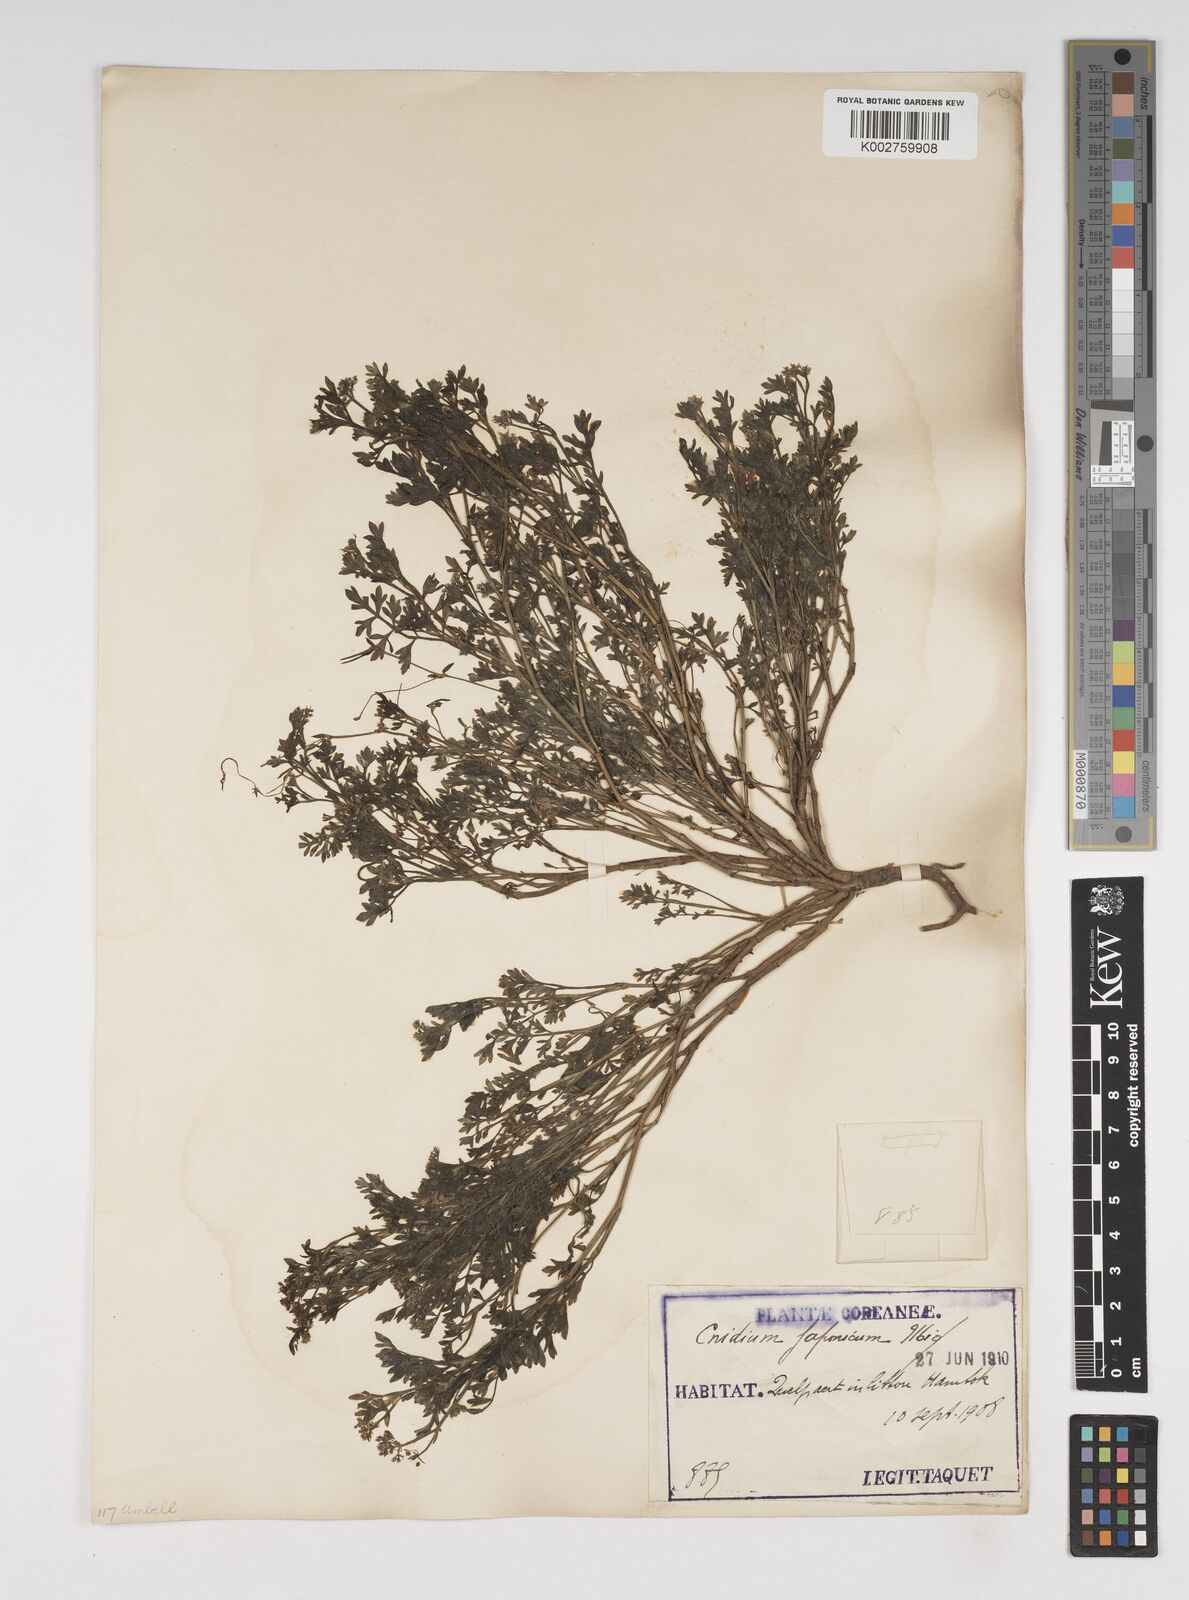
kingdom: Plantae
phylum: Tracheophyta
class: Magnoliopsida
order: Apiales
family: Apiaceae
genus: Cnidium
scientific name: Cnidium japonicum
